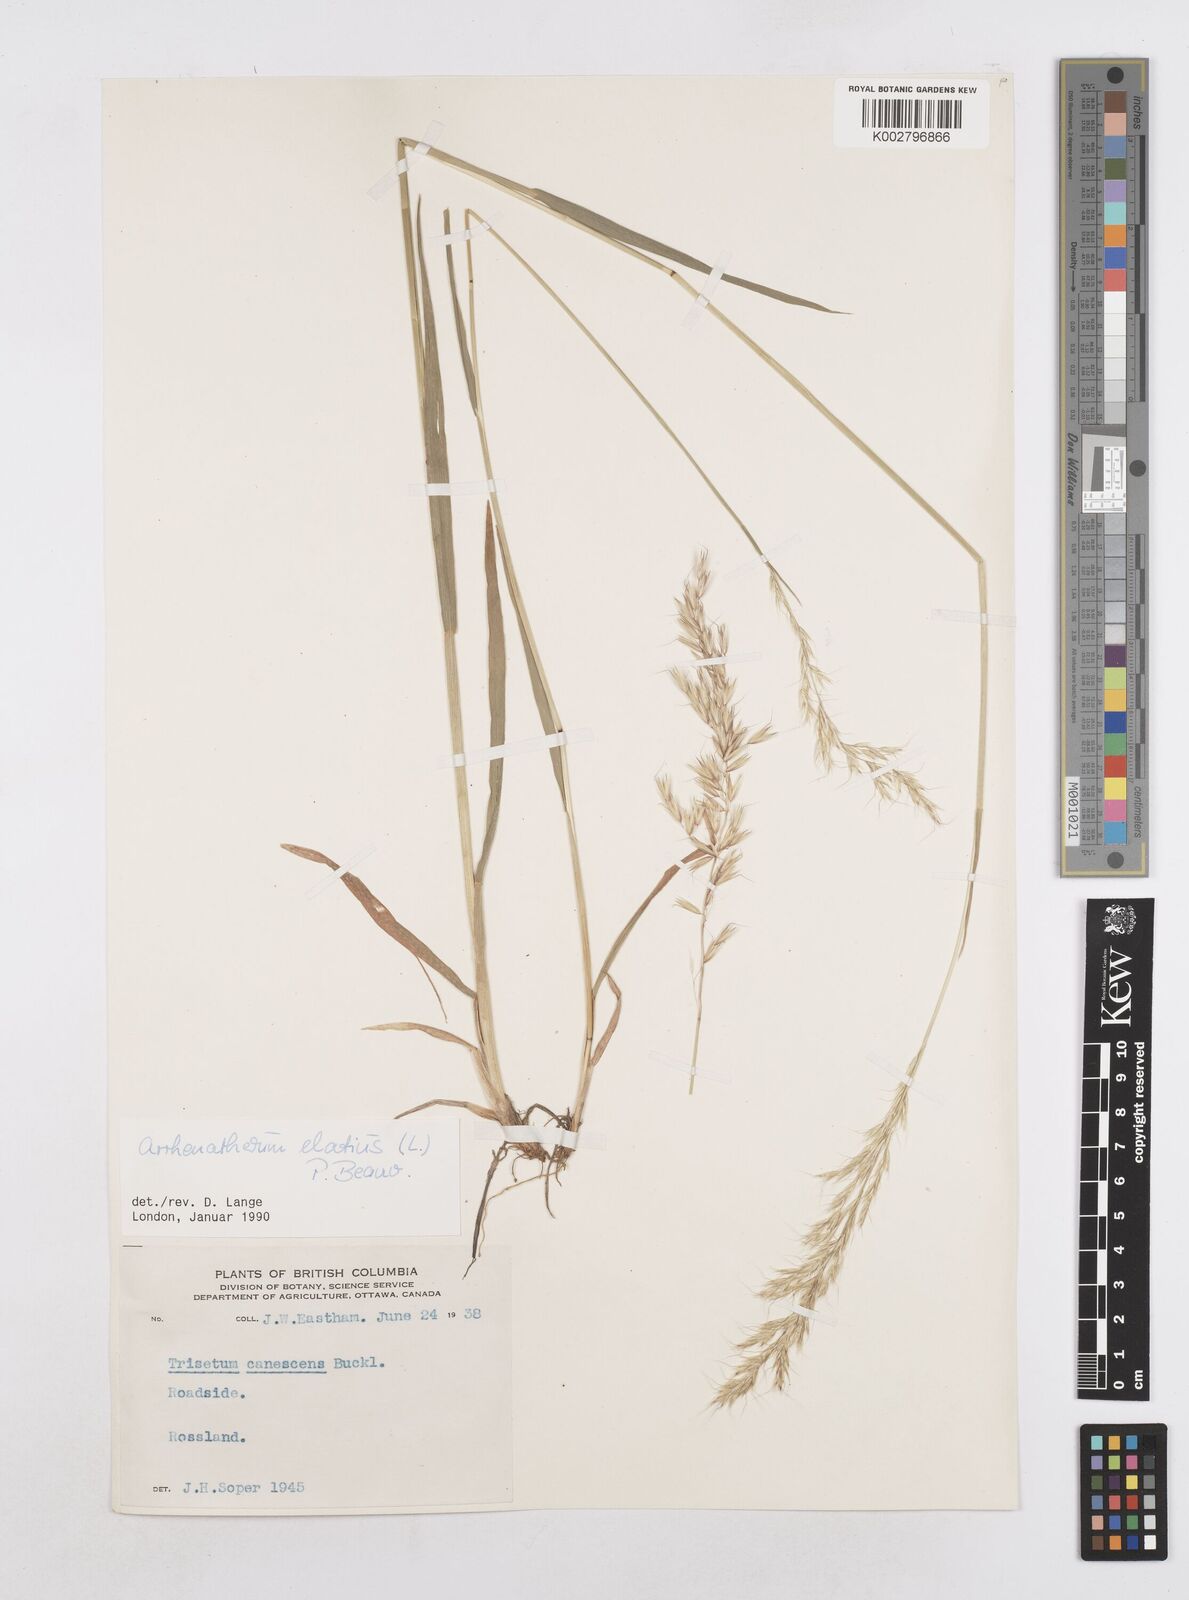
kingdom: Plantae
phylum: Tracheophyta
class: Liliopsida
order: Poales
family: Poaceae
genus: Arrhenatherum
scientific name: Arrhenatherum elatius
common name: Tall oatgrass
